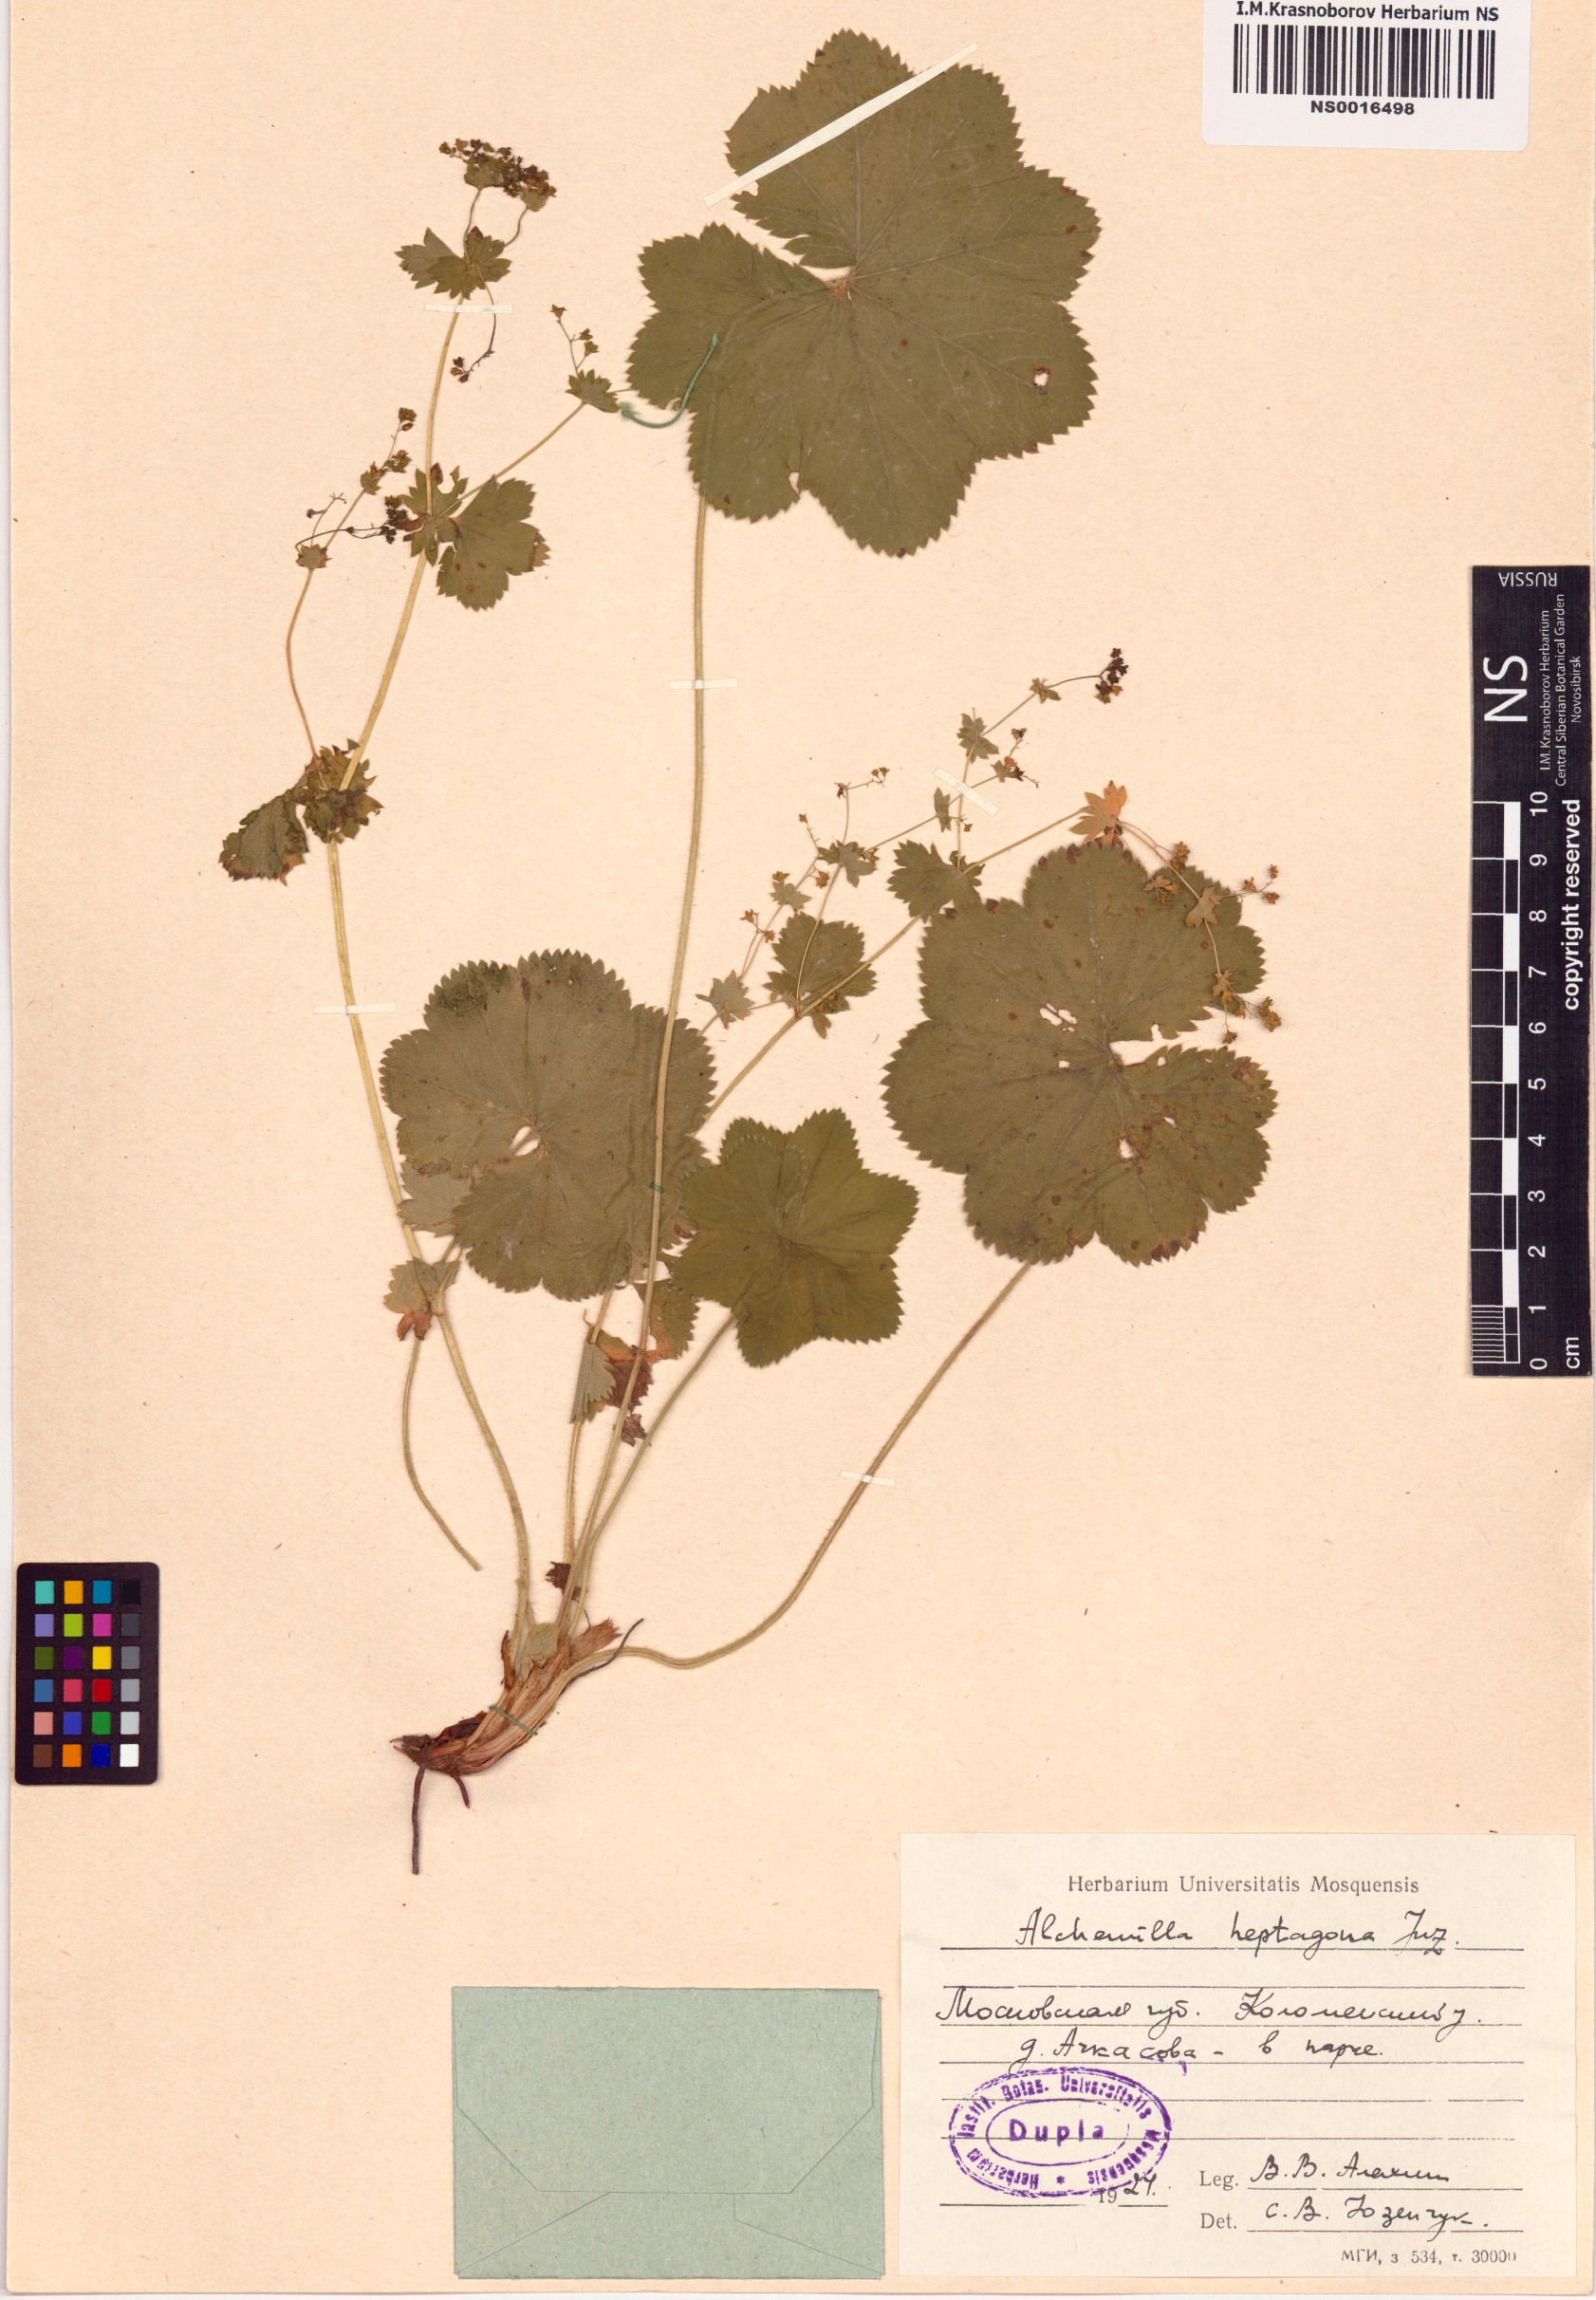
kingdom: Plantae
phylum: Tracheophyta
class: Magnoliopsida
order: Rosales
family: Rosaceae
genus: Alchemilla
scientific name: Alchemilla heptagona
